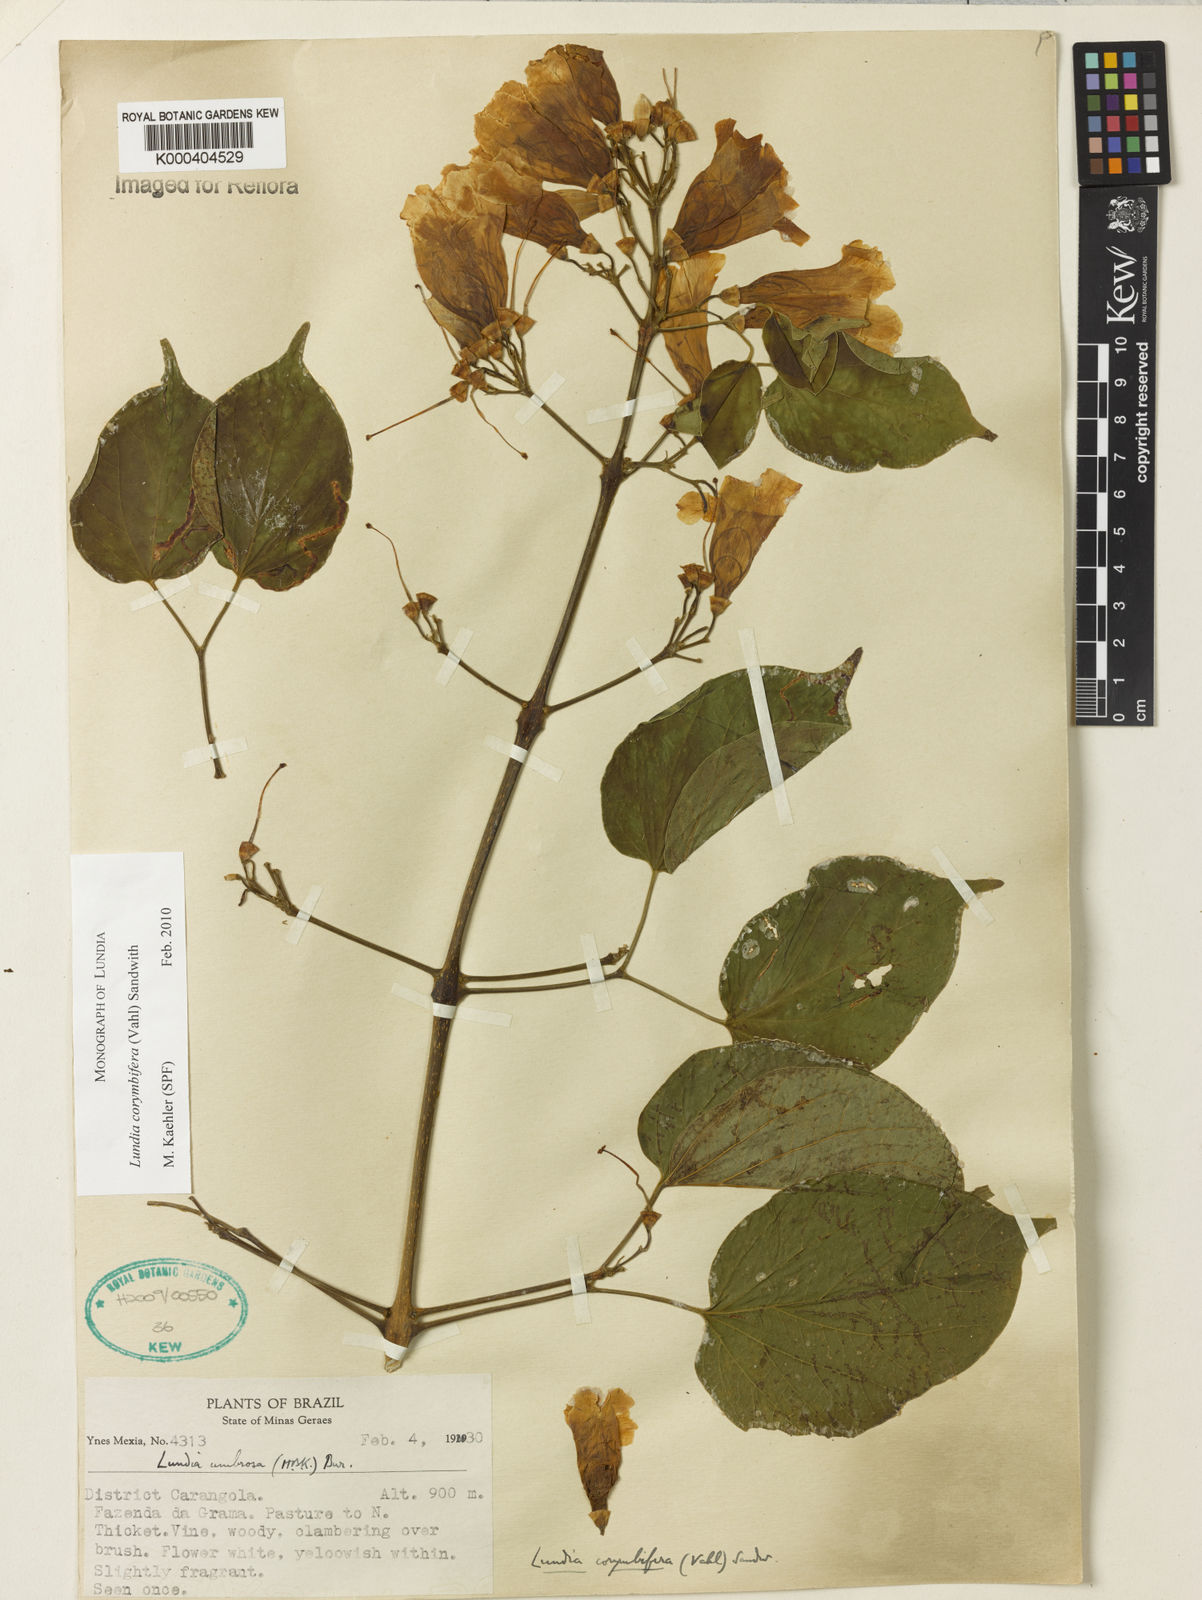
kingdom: Plantae
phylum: Tracheophyta
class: Magnoliopsida
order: Lamiales
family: Bignoniaceae
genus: Lundia
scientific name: Lundia corymbifera
